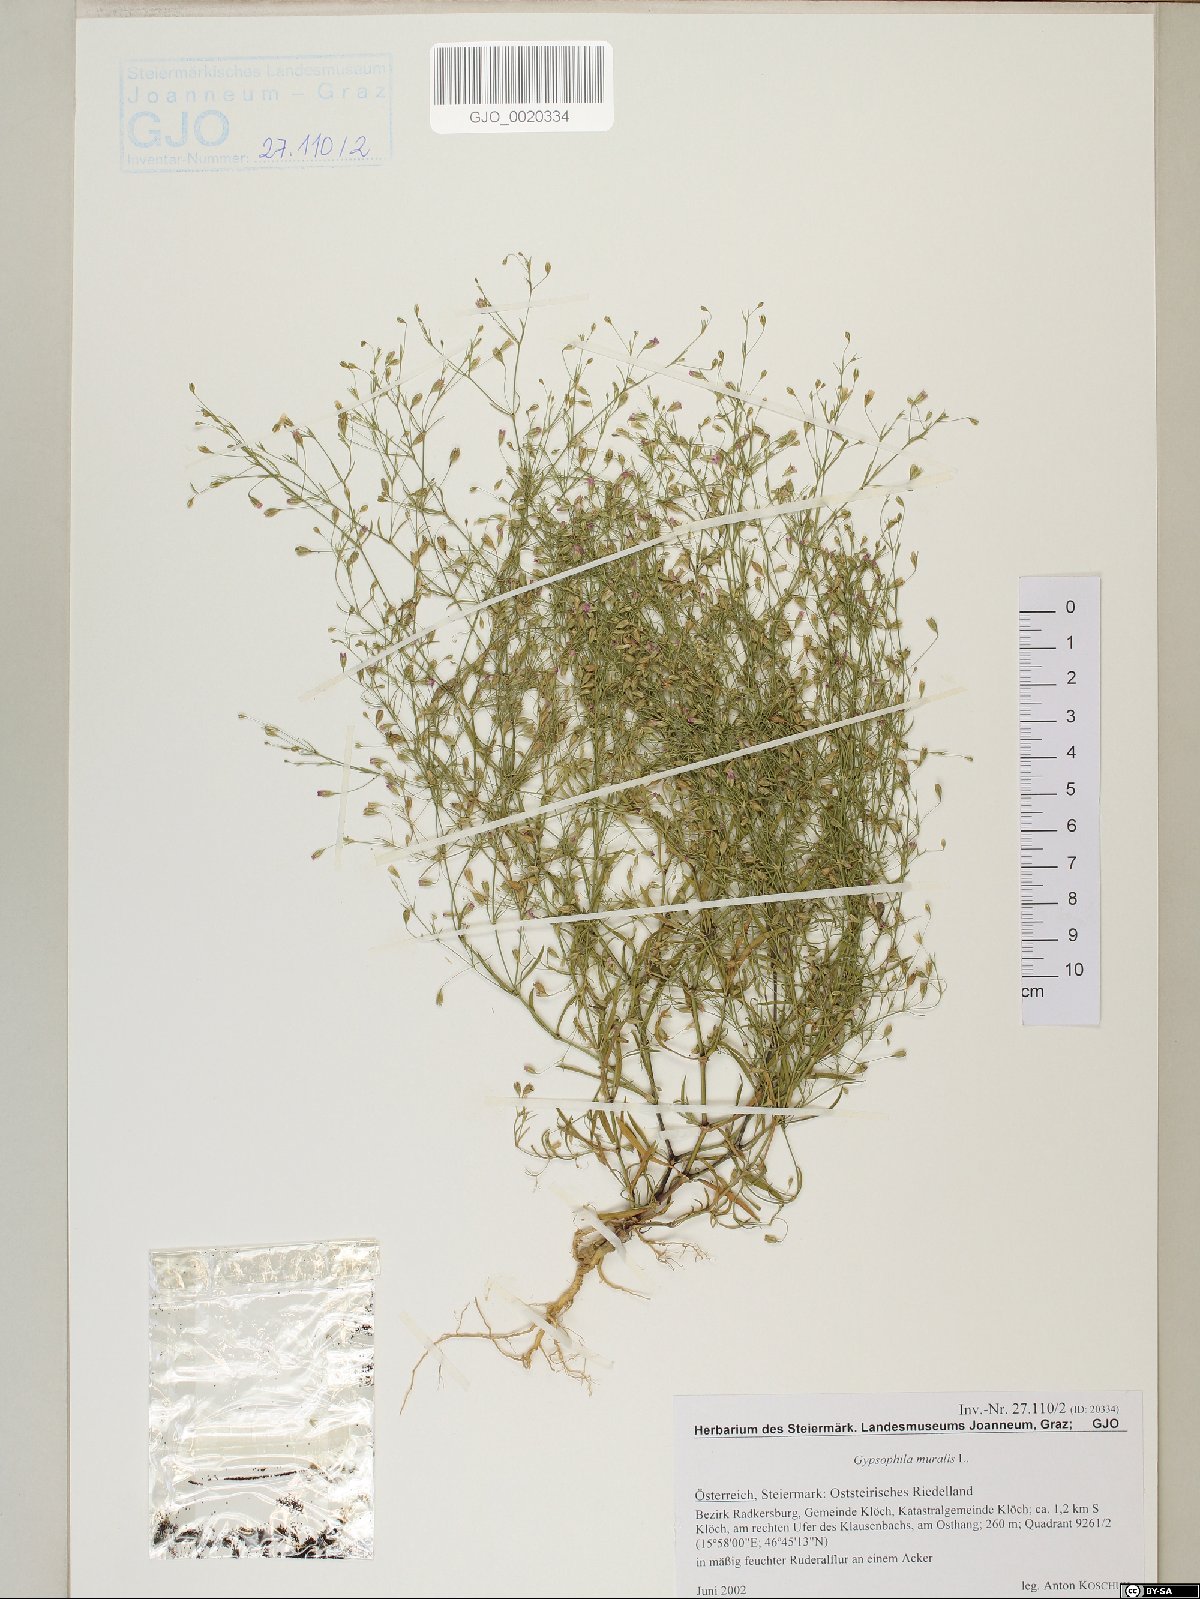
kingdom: Plantae
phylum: Tracheophyta
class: Magnoliopsida
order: Caryophyllales
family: Caryophyllaceae
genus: Psammophiliella
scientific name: Psammophiliella muralis
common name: Cushion baby's-breath
